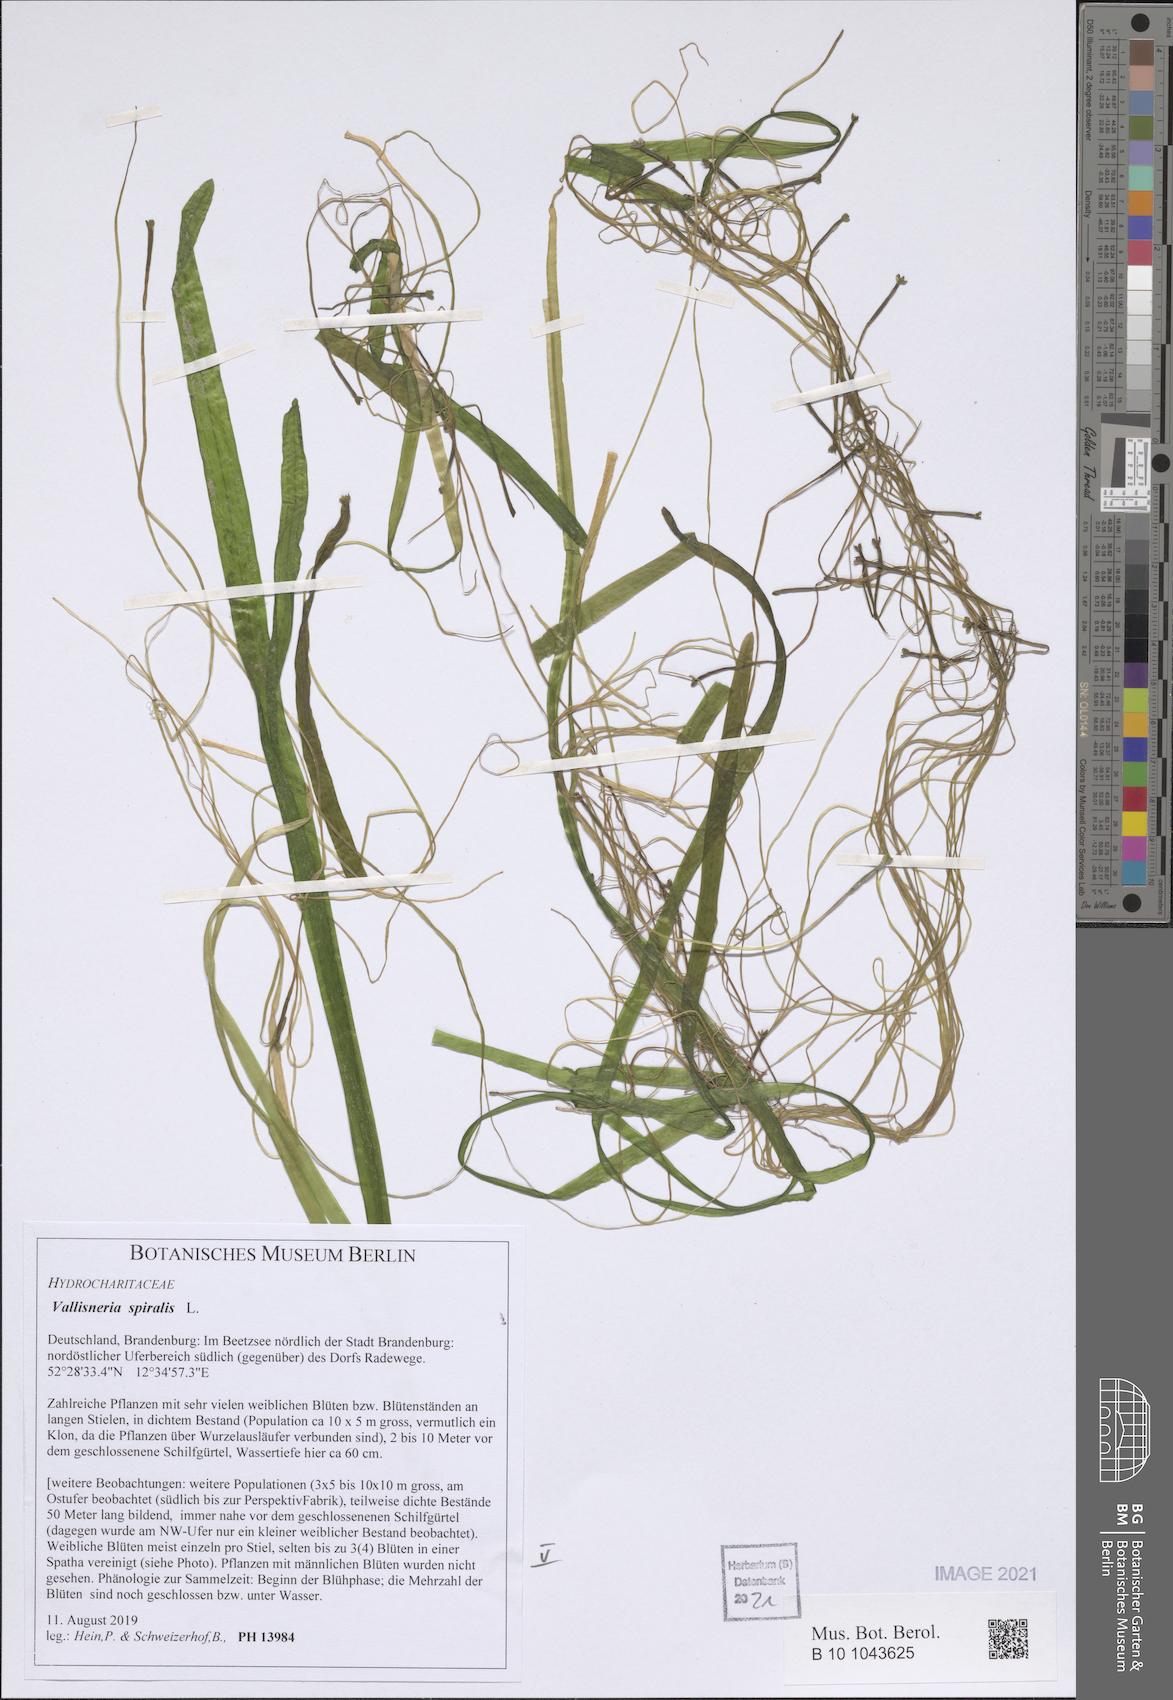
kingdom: Plantae
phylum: Tracheophyta
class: Liliopsida
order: Alismatales
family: Hydrocharitaceae
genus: Vallisneria
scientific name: Vallisneria spiralis
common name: Tapegrass
